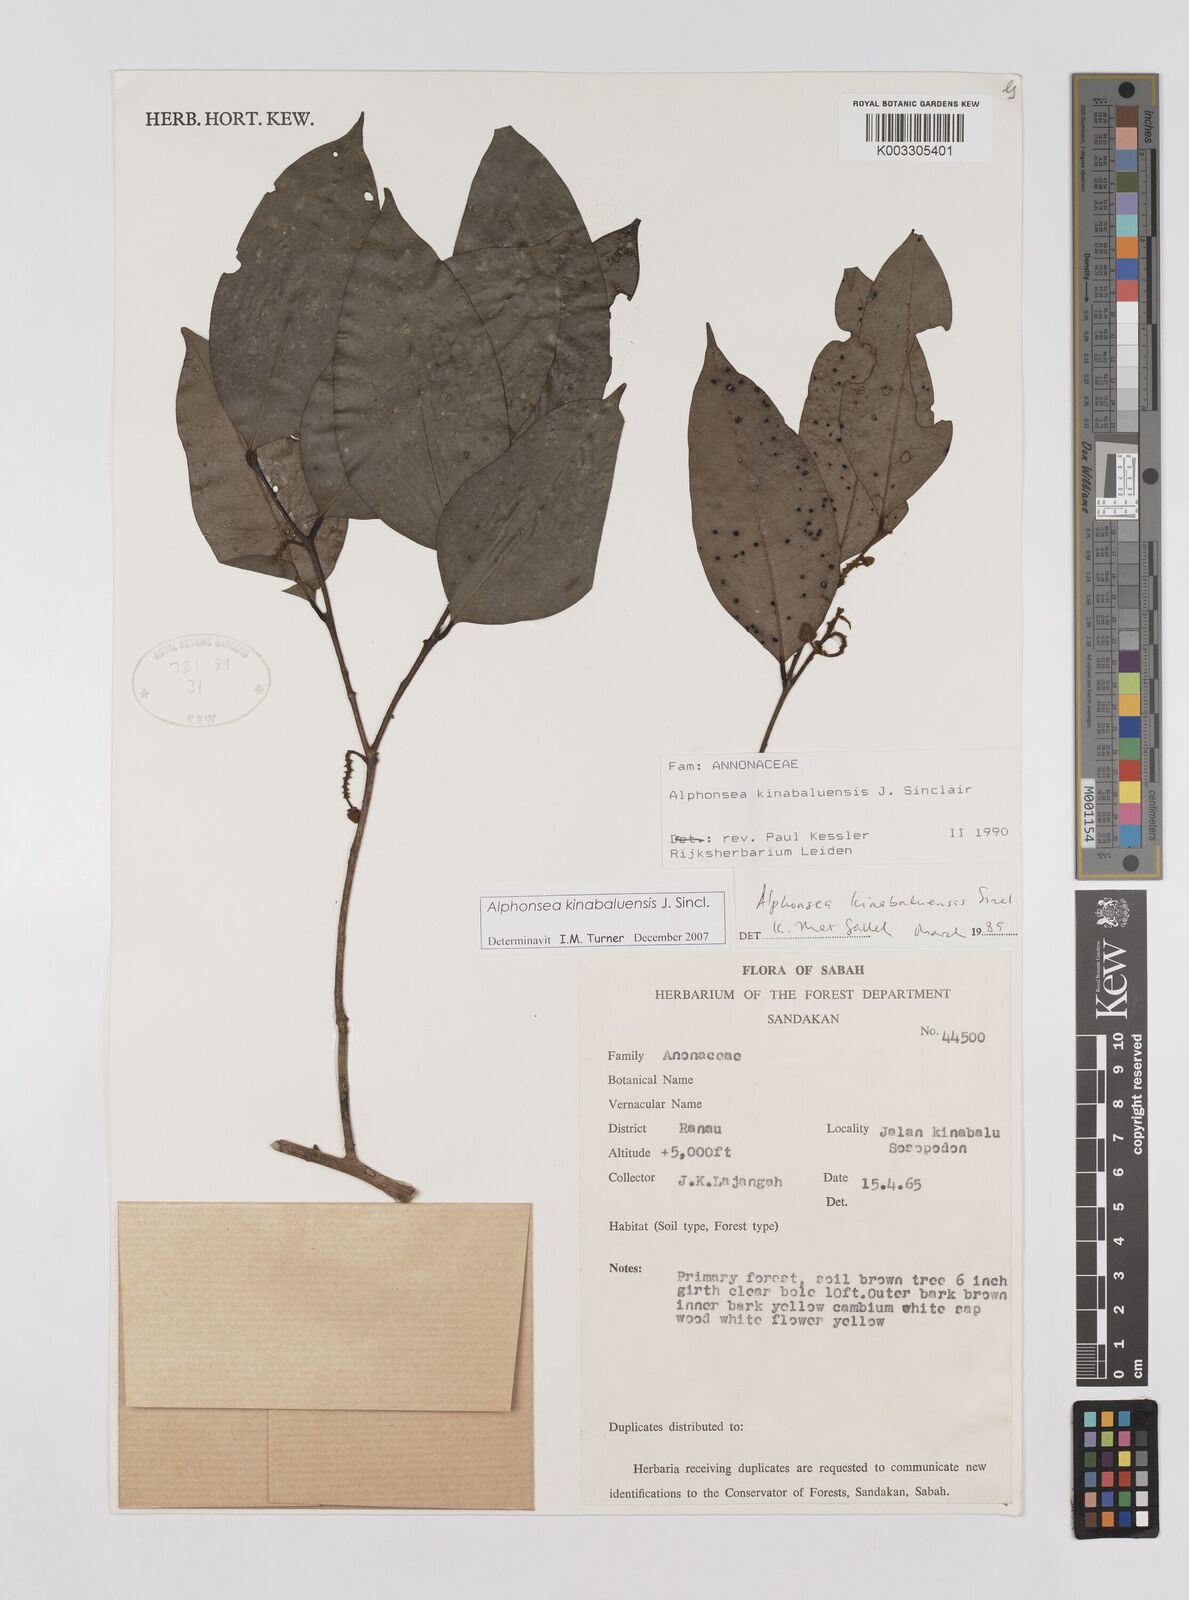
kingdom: Plantae
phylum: Tracheophyta
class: Magnoliopsida
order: Magnoliales
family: Annonaceae
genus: Alphonsea
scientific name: Alphonsea kinabaluensis
